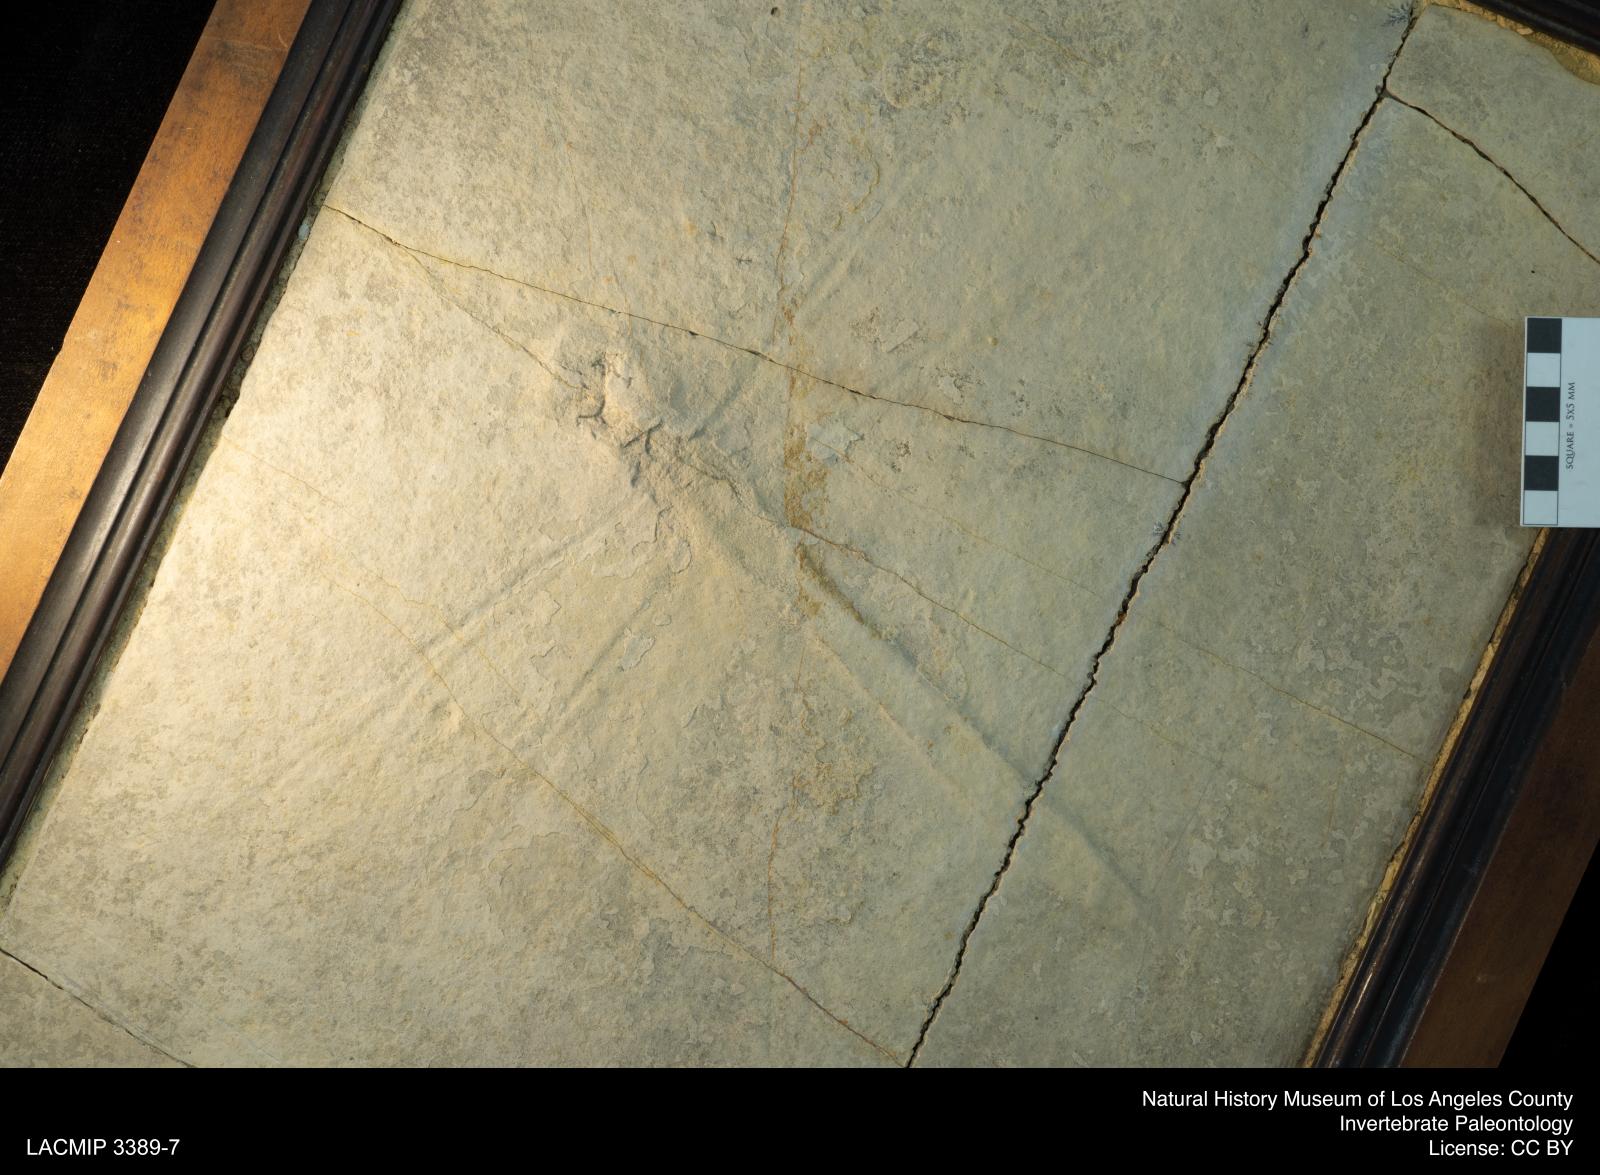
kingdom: Animalia
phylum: Arthropoda
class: Insecta
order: Odonata
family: Aktassiidae
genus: Aeschnogomphus
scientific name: Aeschnogomphus Aeschna intermedia
